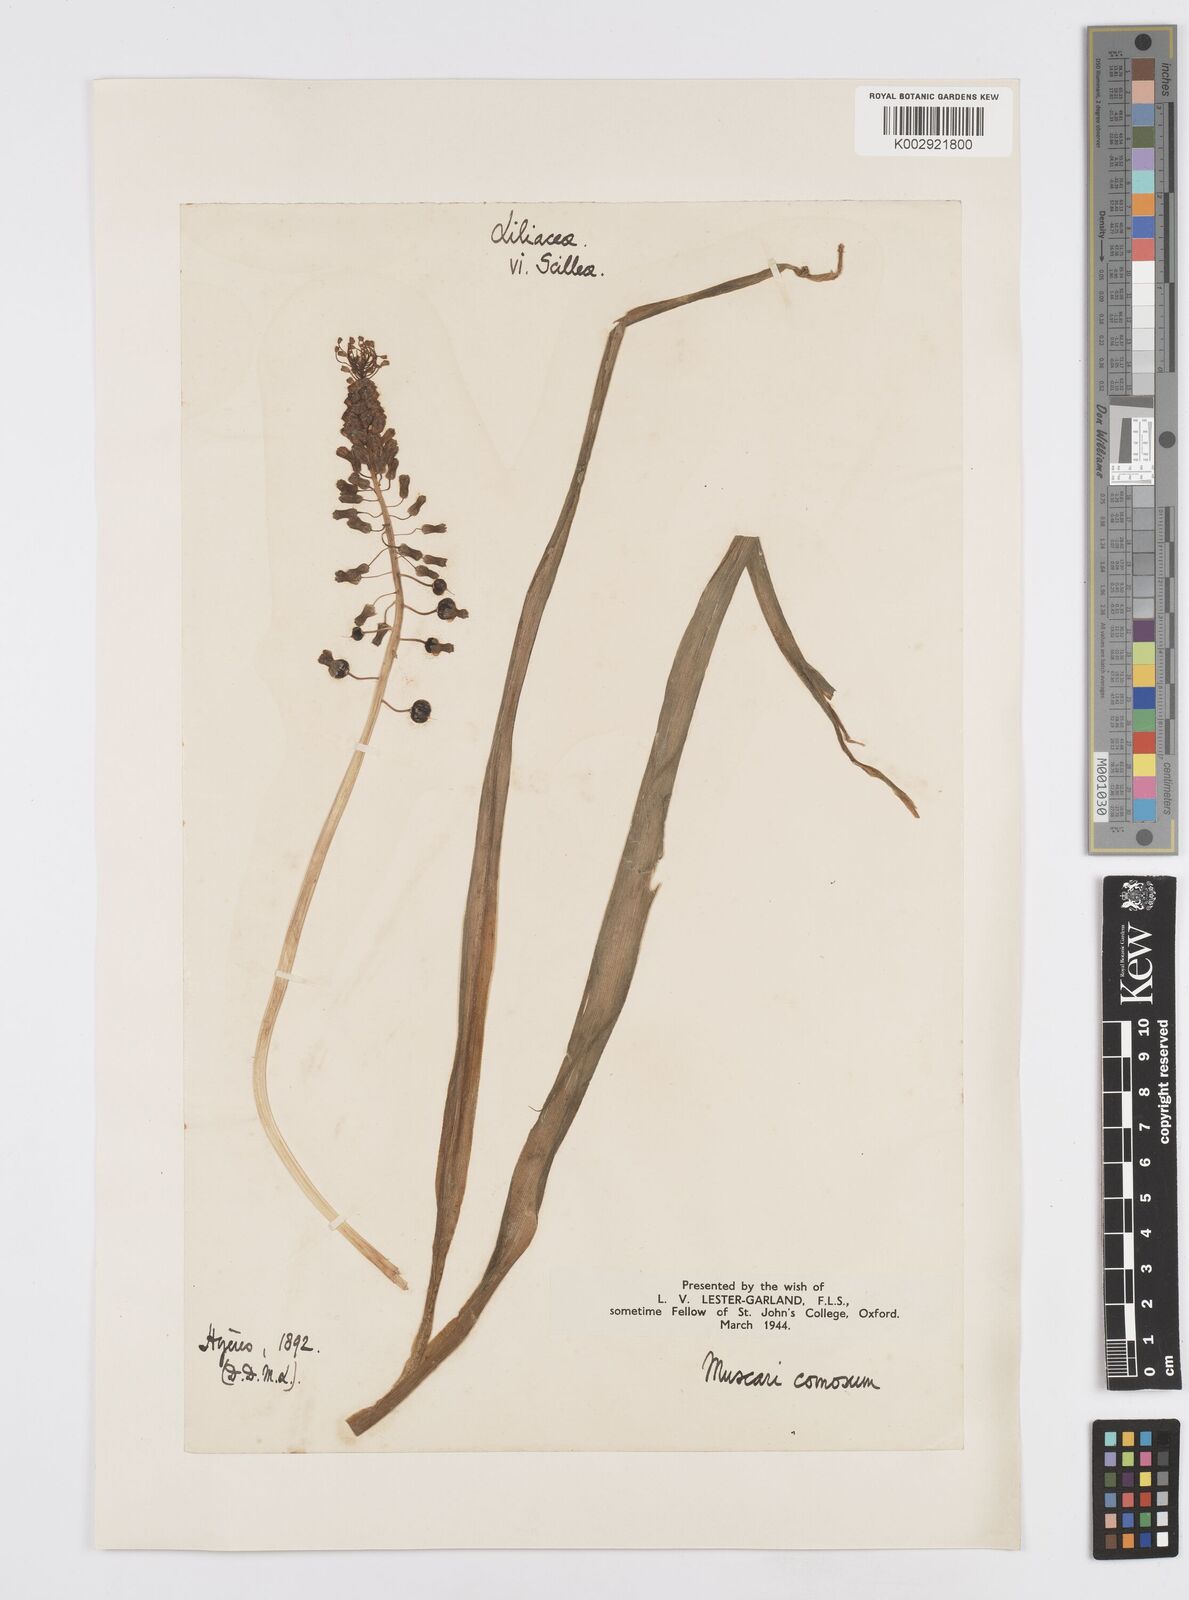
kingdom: Plantae
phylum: Tracheophyta
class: Liliopsida
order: Asparagales
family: Asparagaceae
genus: Muscari
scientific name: Muscari comosum
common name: Tassel hyacinth
